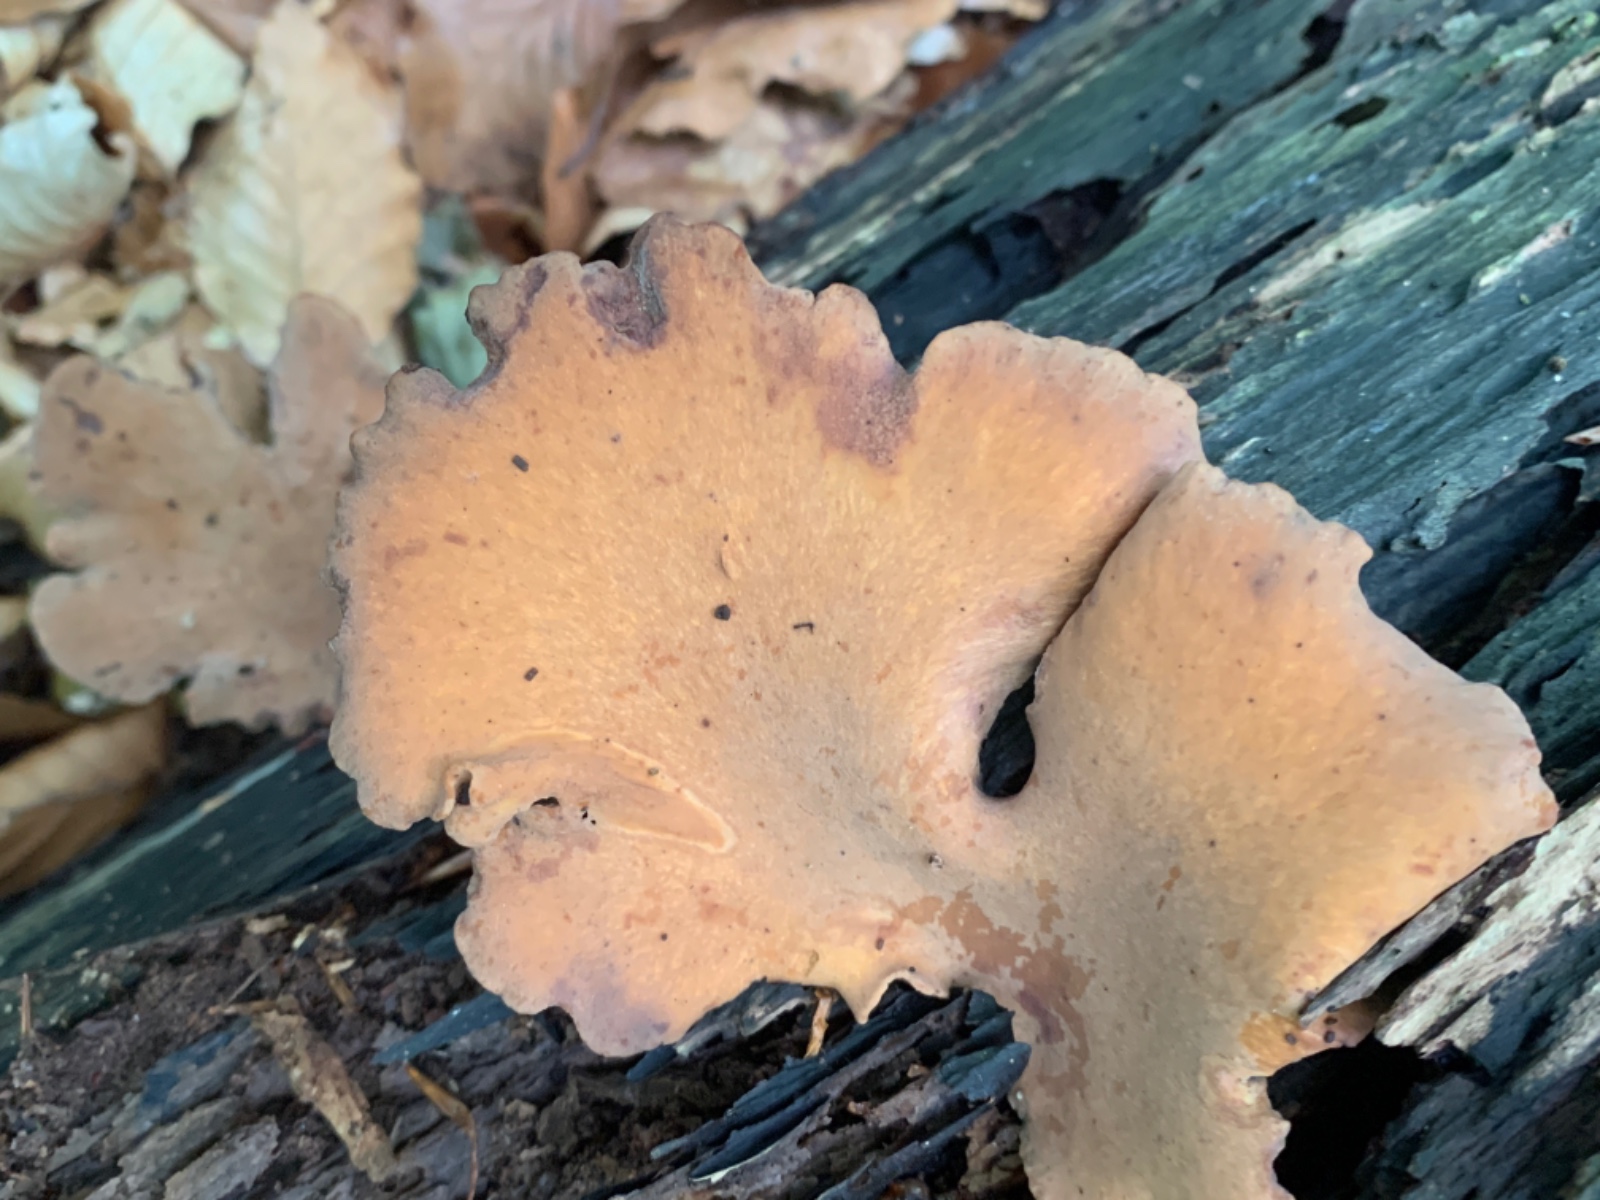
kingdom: Fungi
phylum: Basidiomycota
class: Agaricomycetes
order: Polyporales
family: Polyporaceae
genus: Cerioporus
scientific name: Cerioporus varius
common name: foranderlig stilkporesvamp
